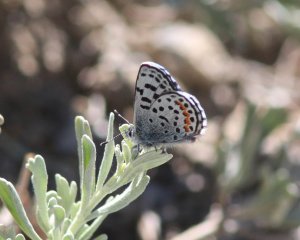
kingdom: Animalia
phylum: Arthropoda
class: Insecta
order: Lepidoptera
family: Lycaenidae
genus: Euphilotes
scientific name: Euphilotes baueri
